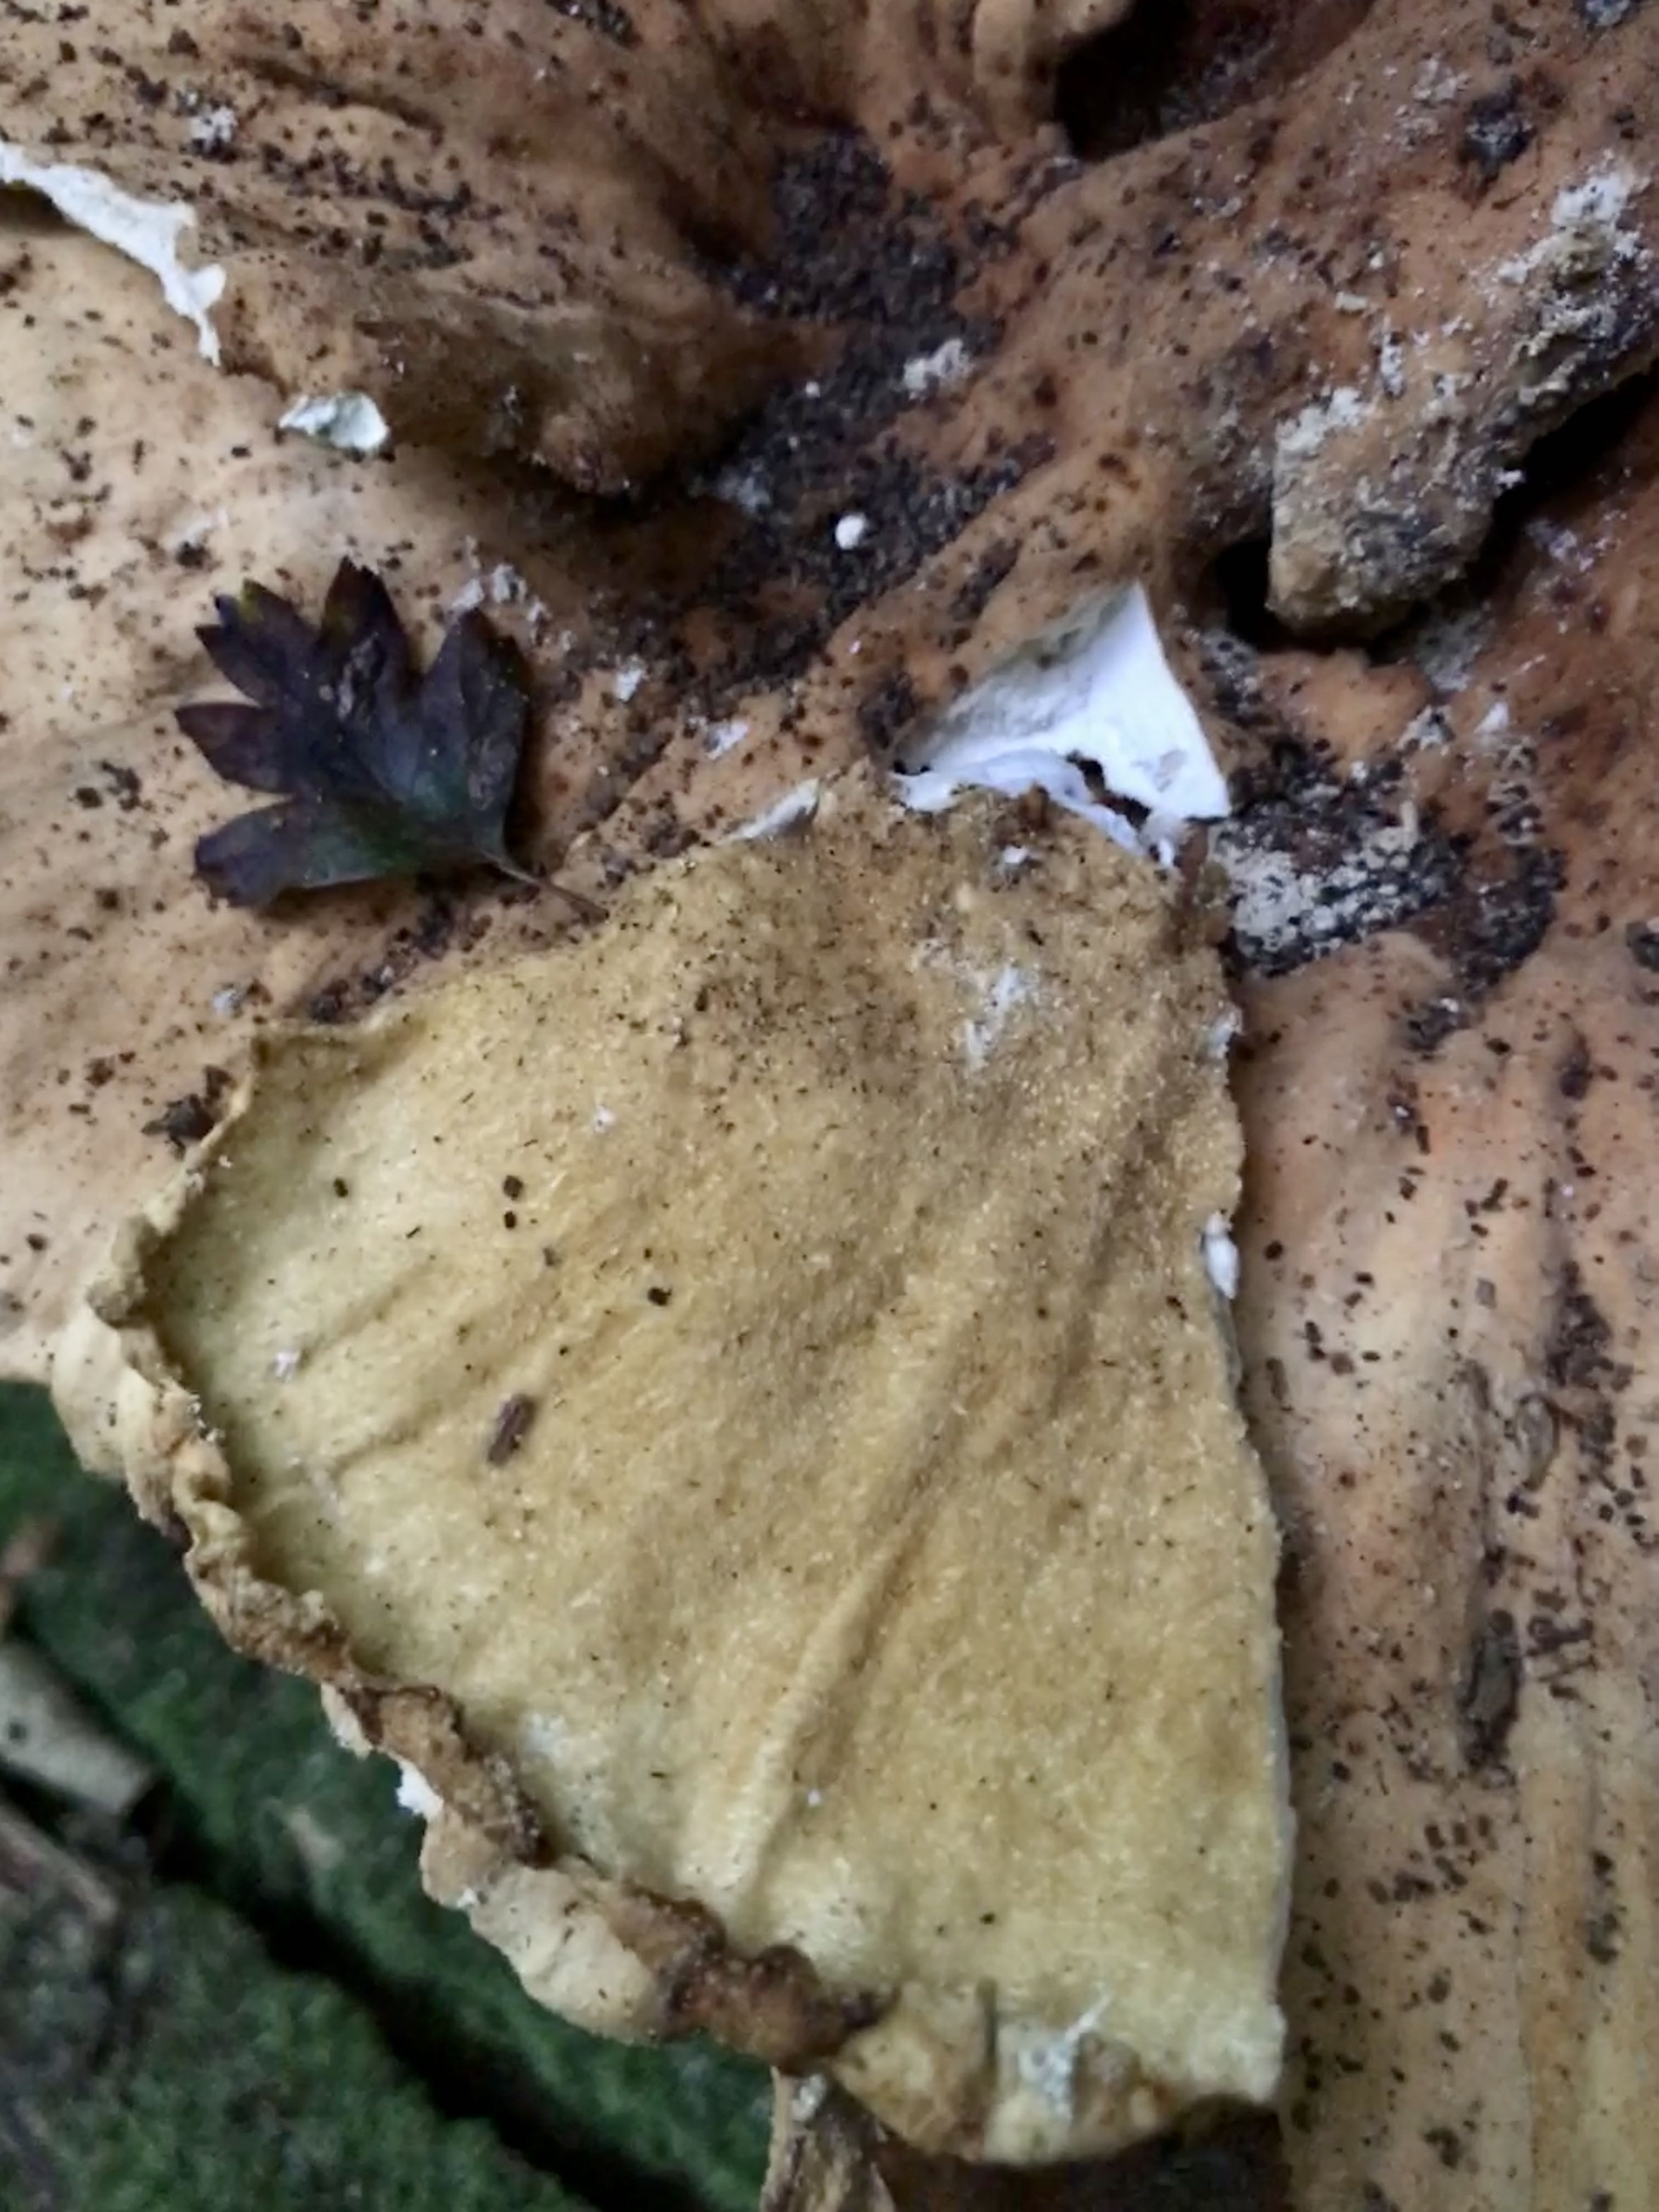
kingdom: Fungi
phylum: Basidiomycota
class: Agaricomycetes
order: Polyporales
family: Laetiporaceae
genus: Laetiporus
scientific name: Laetiporus sulphureus
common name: svovlporesvamp
